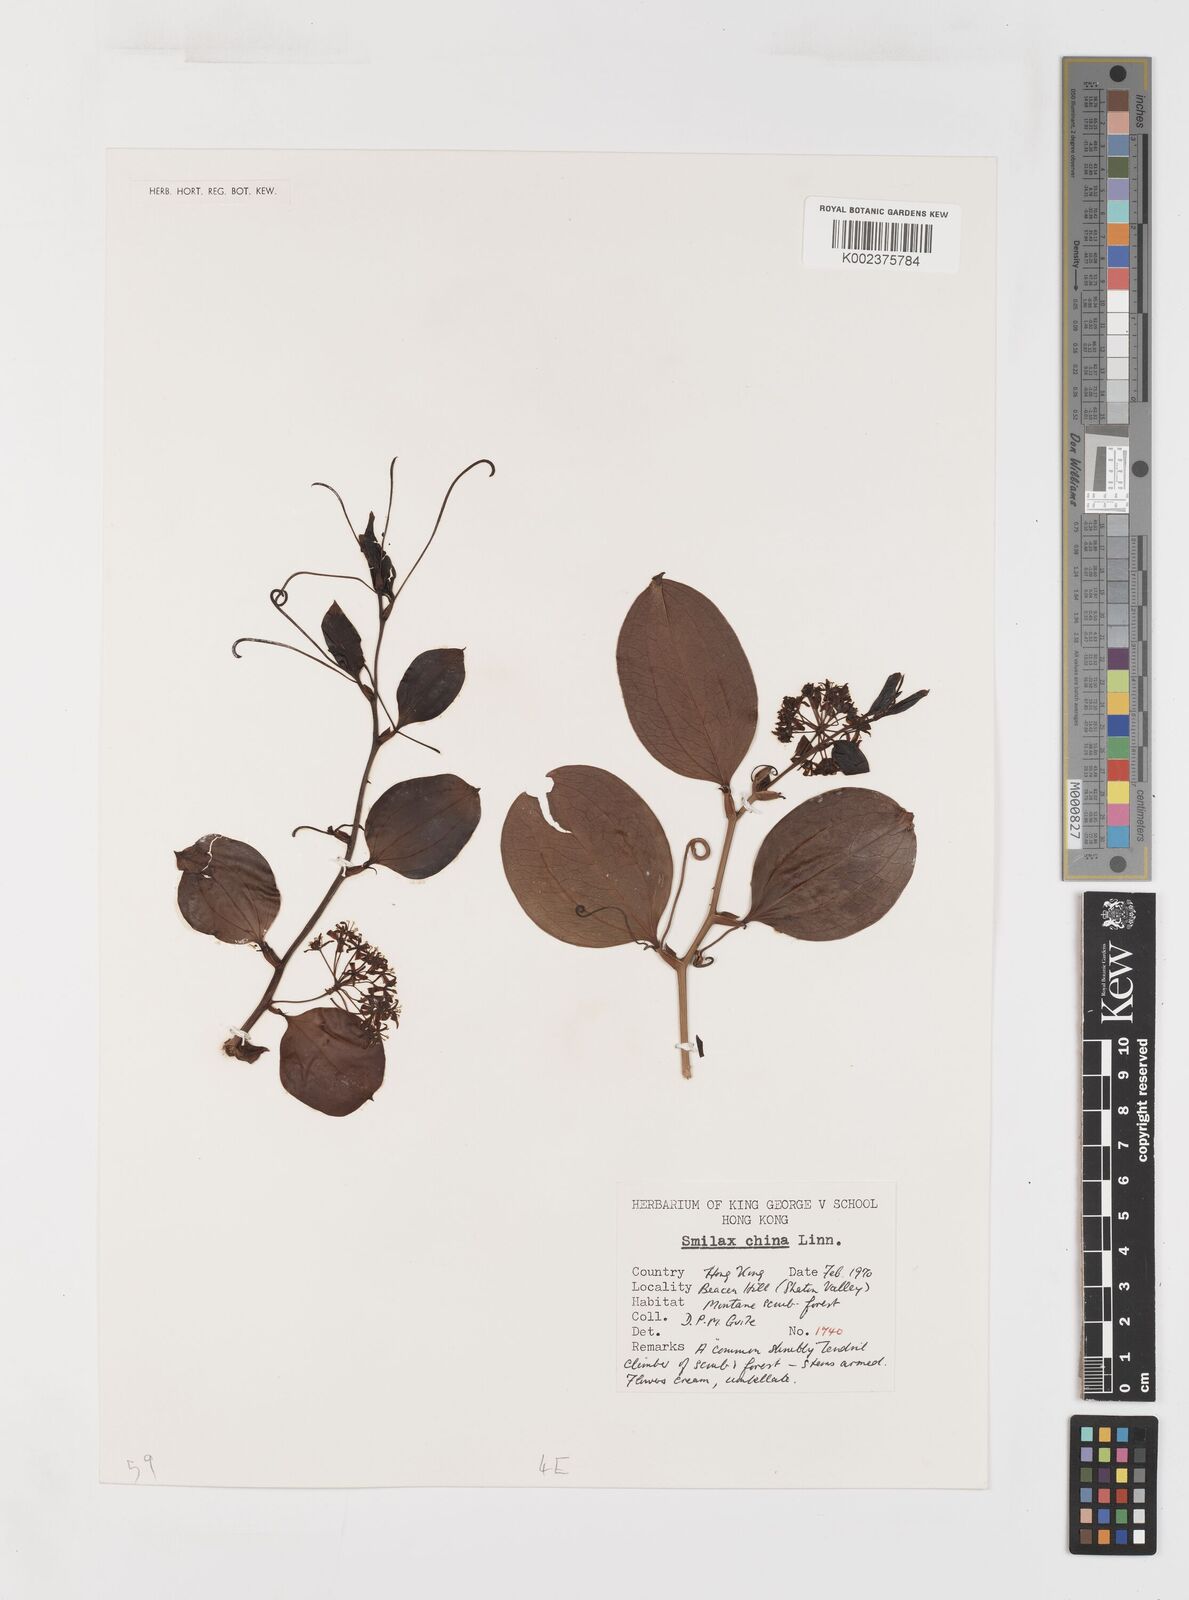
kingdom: Plantae
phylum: Tracheophyta
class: Liliopsida
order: Liliales
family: Smilacaceae
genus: Smilax
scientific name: Smilax china
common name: Chinaroot
